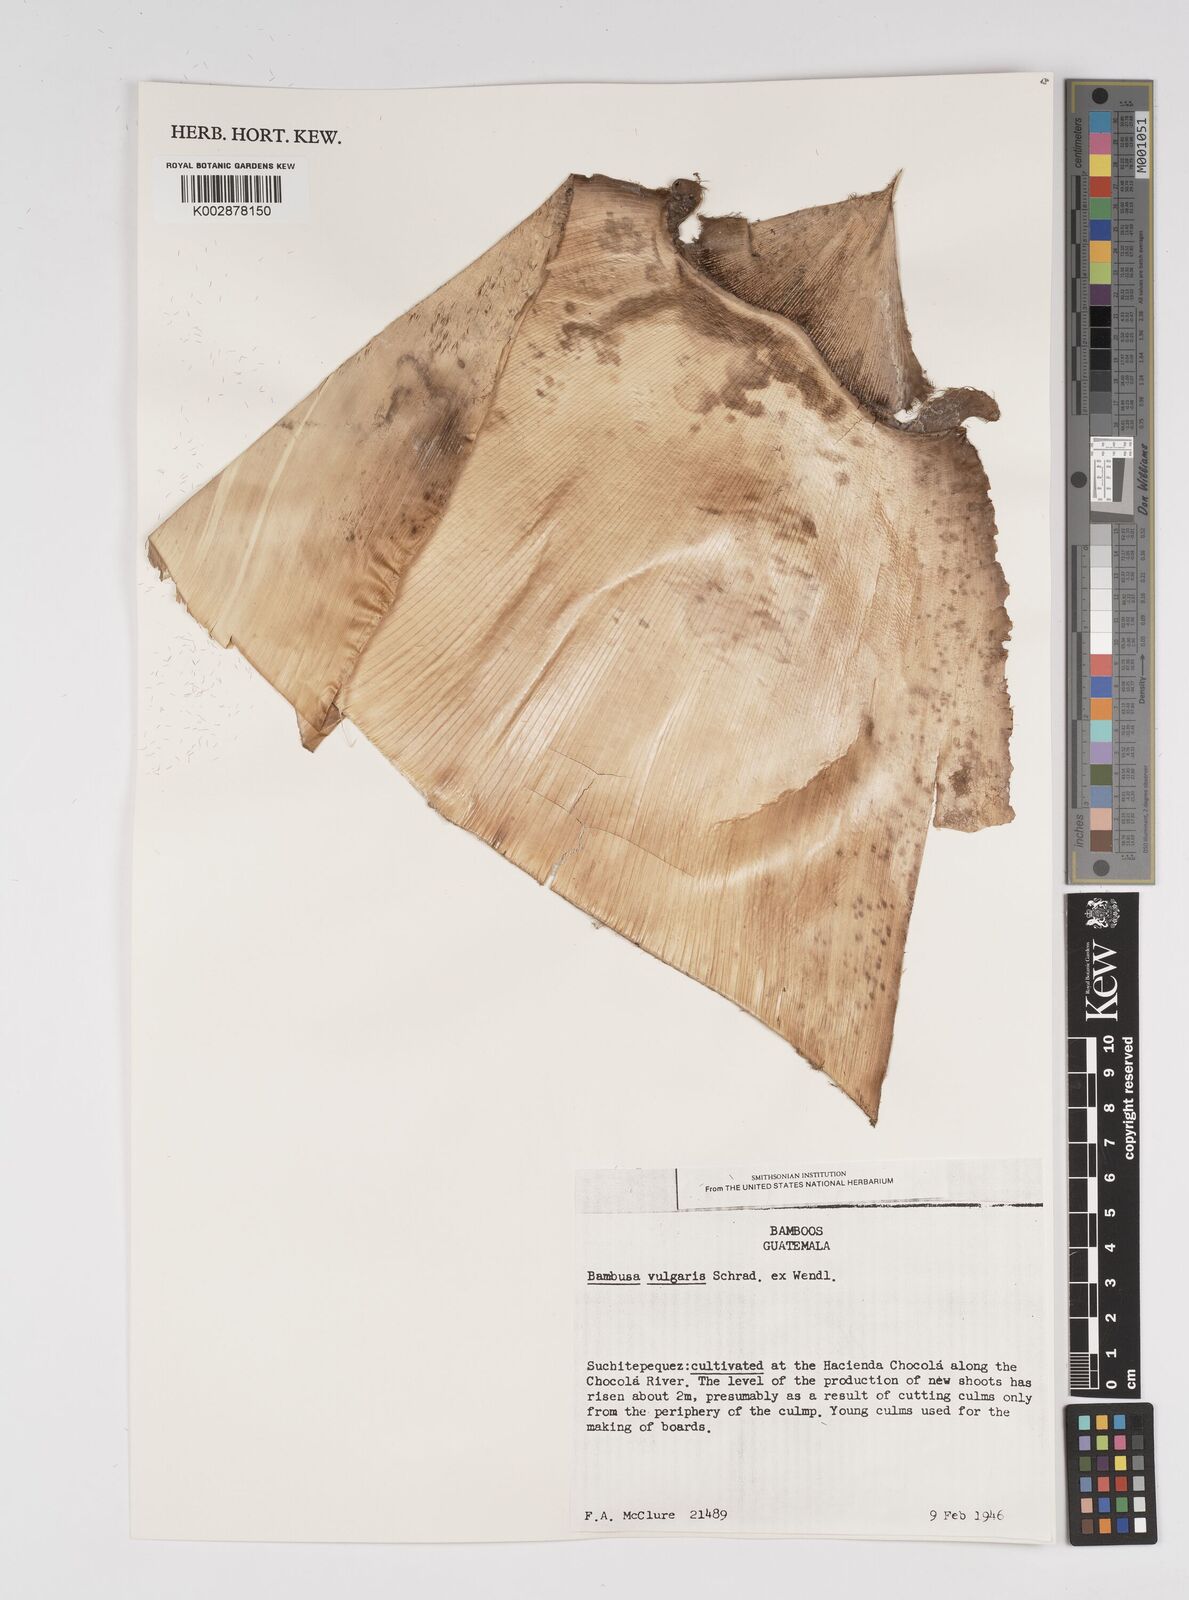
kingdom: Plantae
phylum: Tracheophyta
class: Liliopsida
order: Poales
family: Poaceae
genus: Bambusa
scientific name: Bambusa
